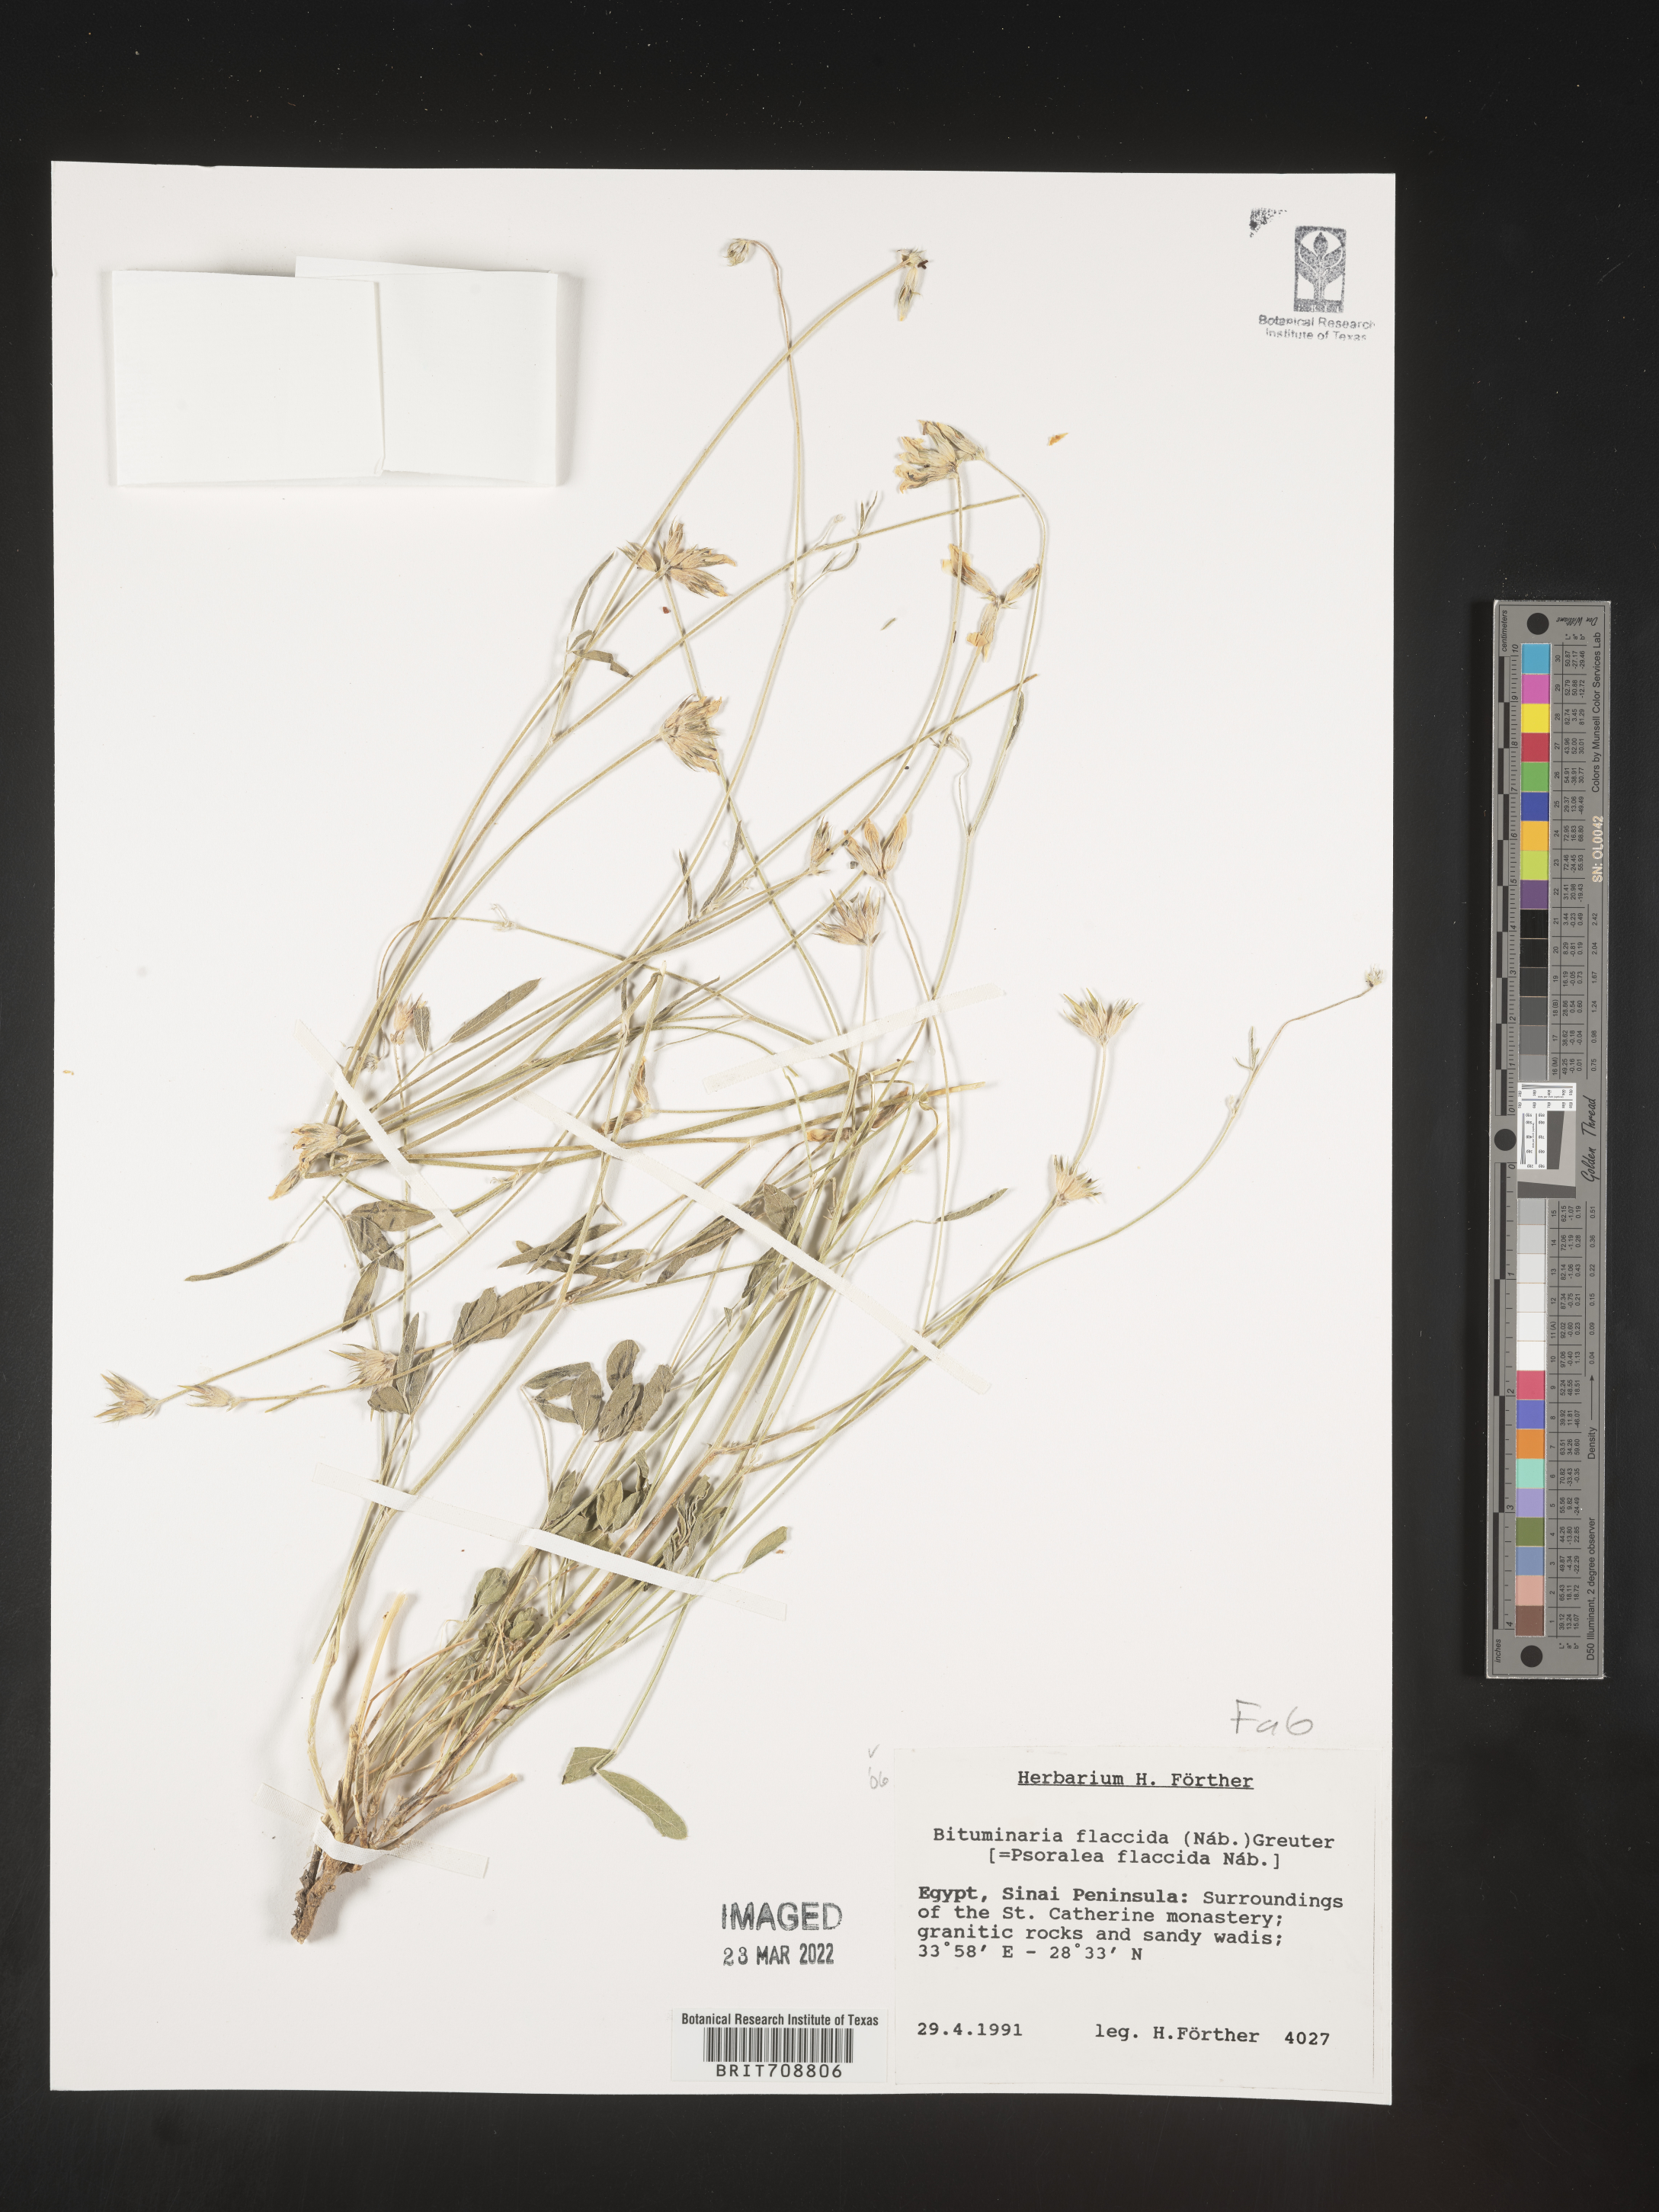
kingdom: Plantae
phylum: Tracheophyta
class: Magnoliopsida
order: Fabales
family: Fabaceae
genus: Psoralea
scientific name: Psoralea
